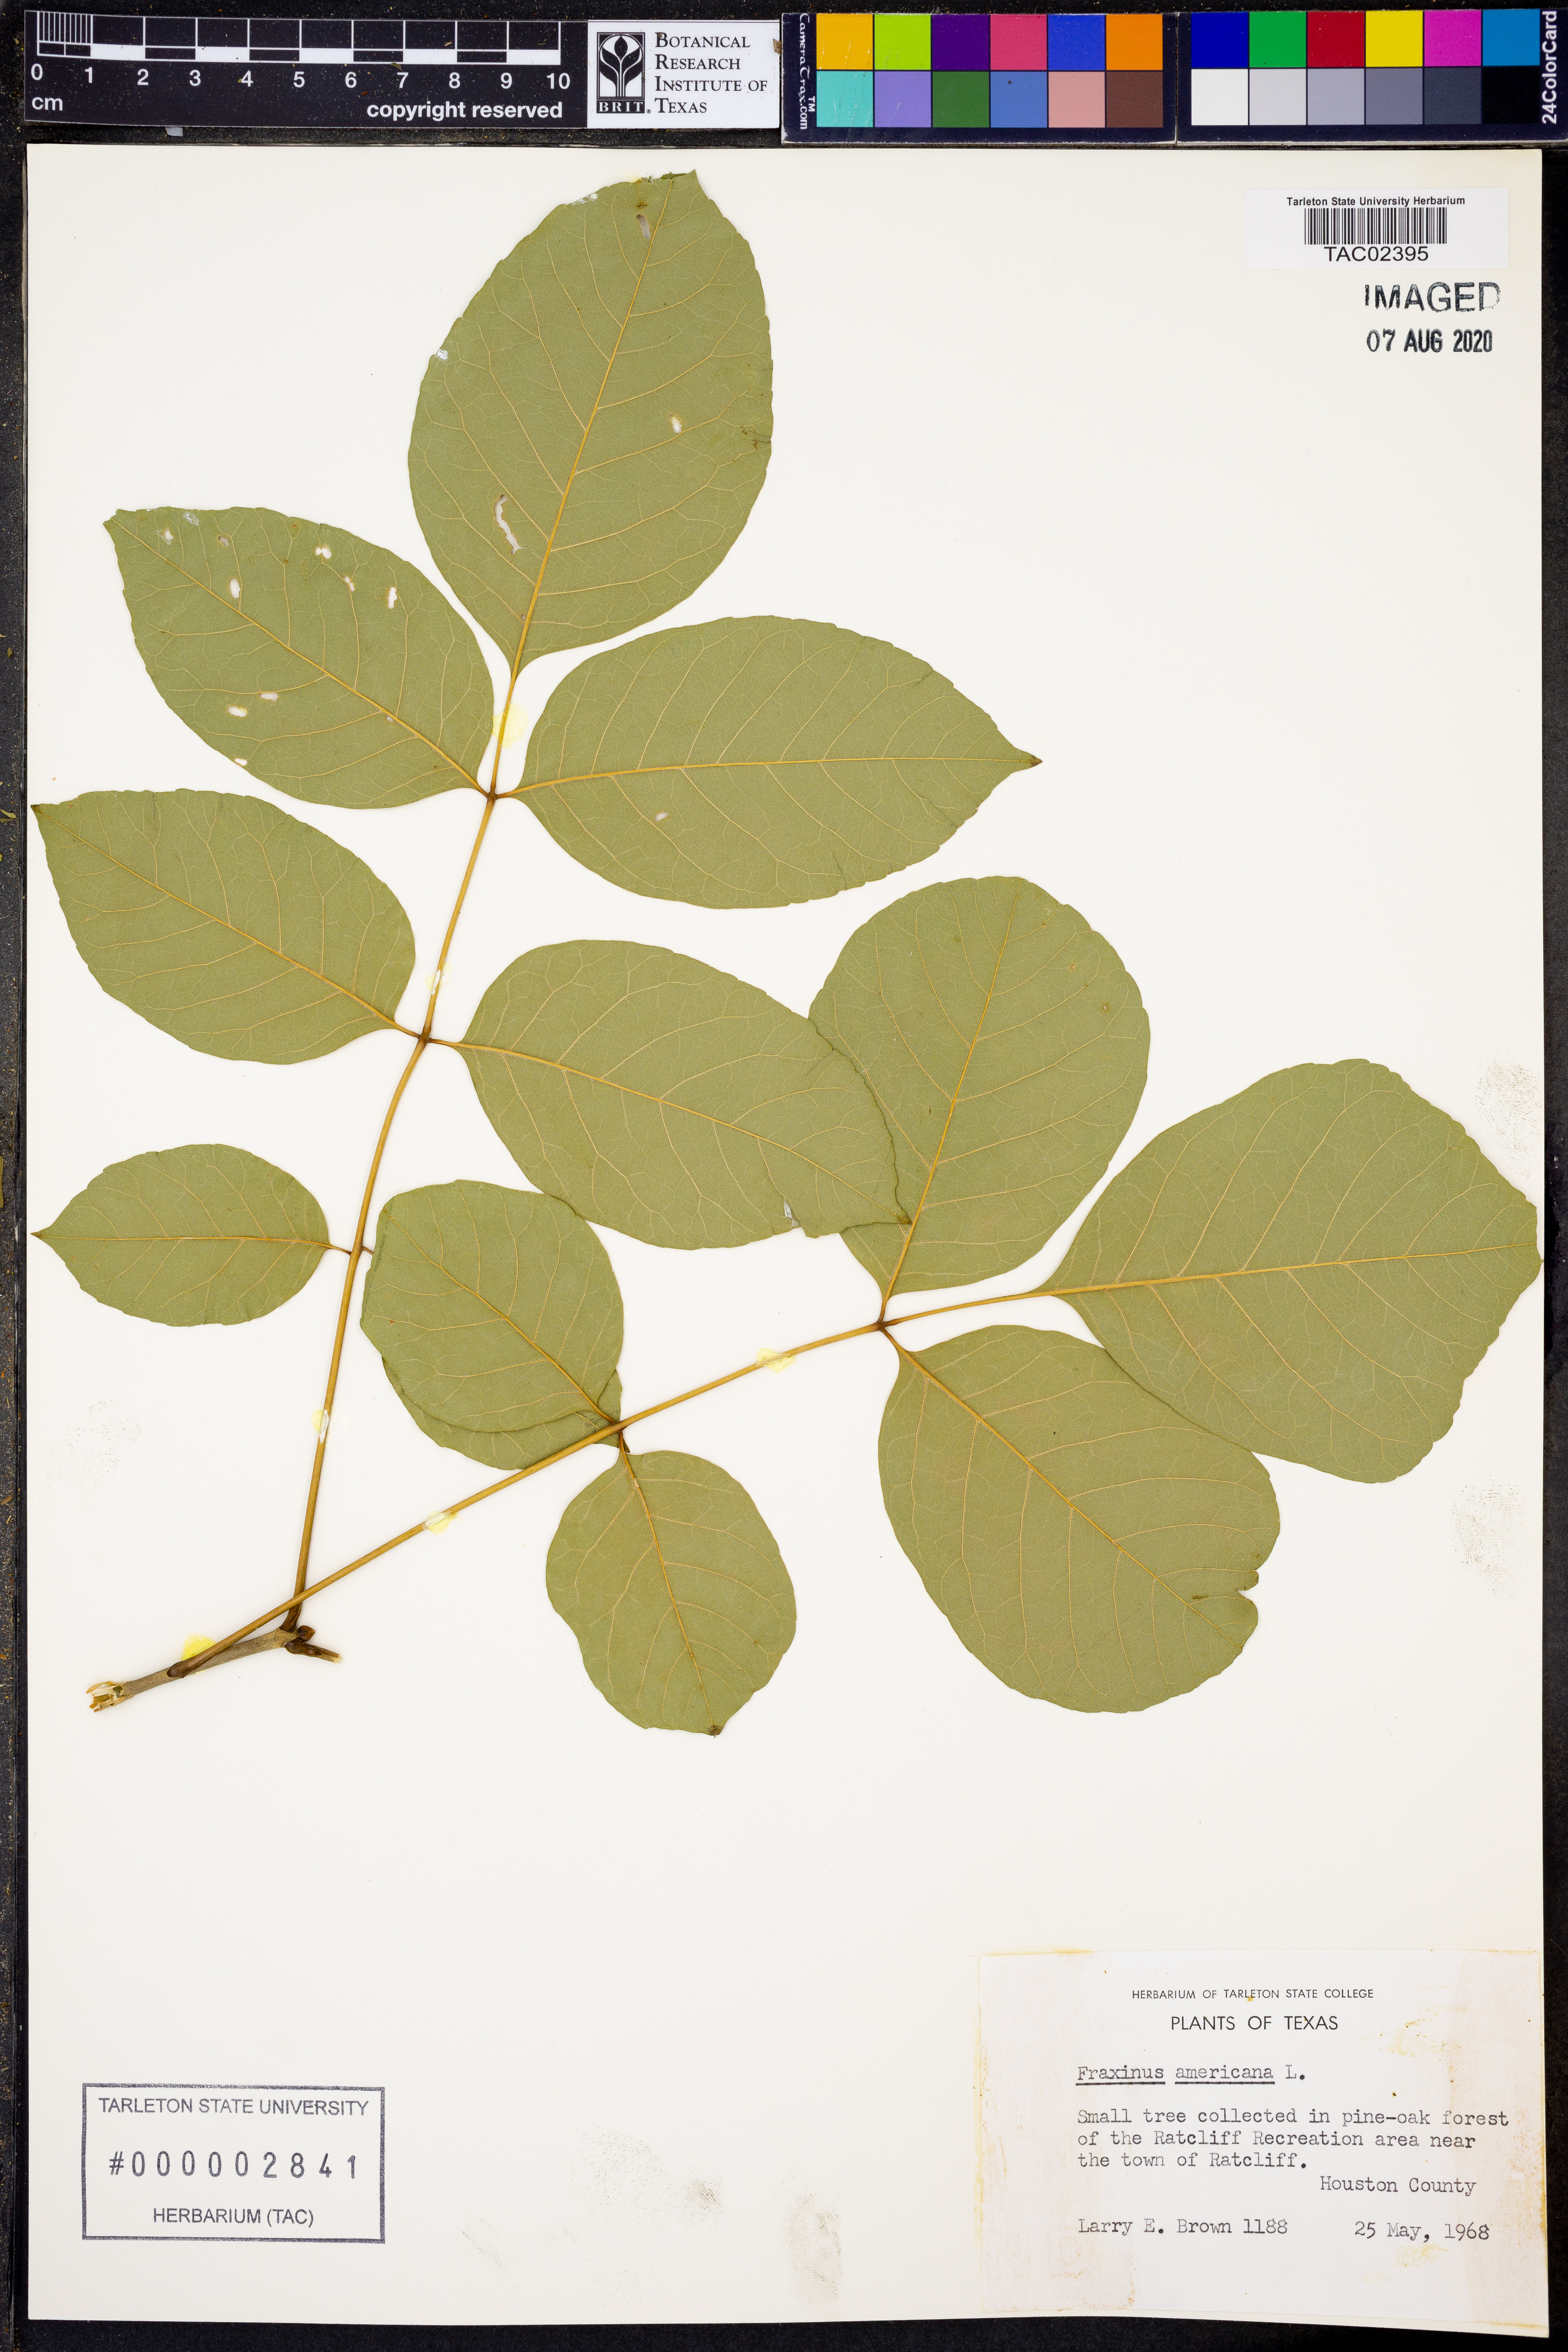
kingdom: Plantae
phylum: Tracheophyta
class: Magnoliopsida
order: Lamiales
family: Oleaceae
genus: Fraxinus
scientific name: Fraxinus americana
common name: White ash
